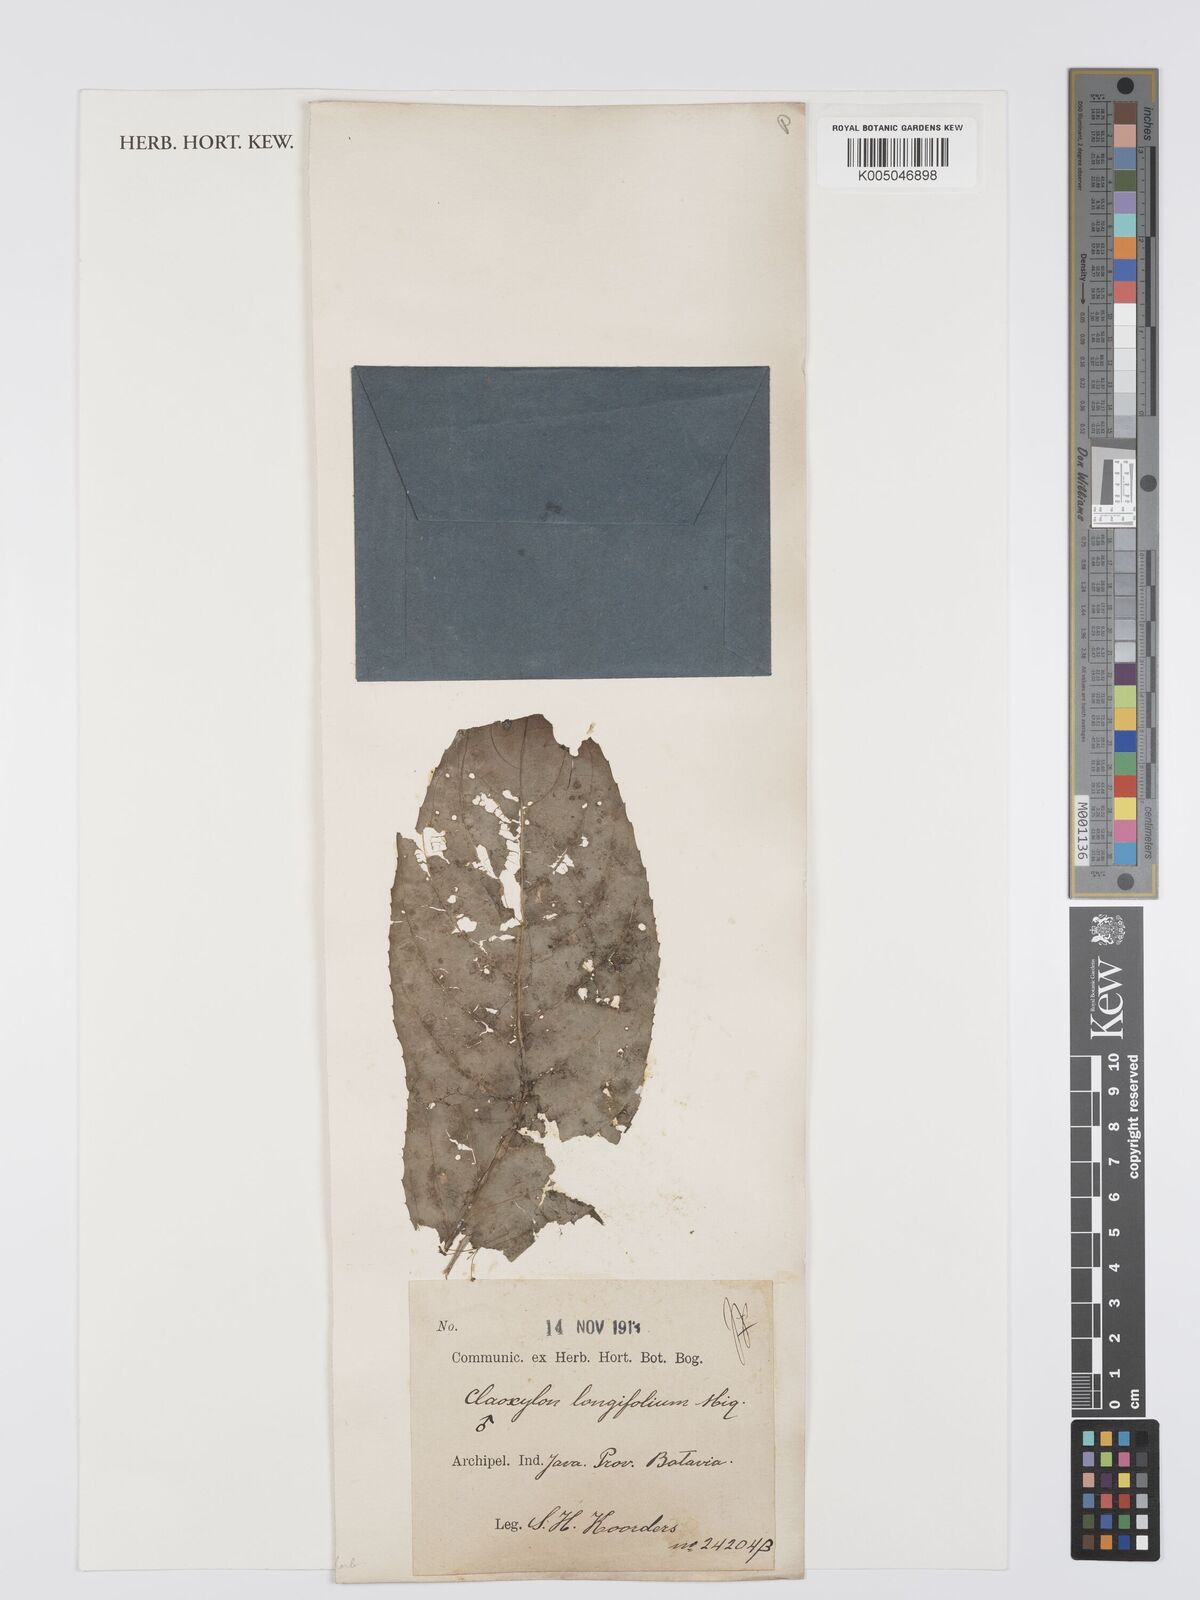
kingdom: Plantae
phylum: Tracheophyta
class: Magnoliopsida
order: Malpighiales
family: Euphorbiaceae
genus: Micrococca
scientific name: Micrococca oligandra
